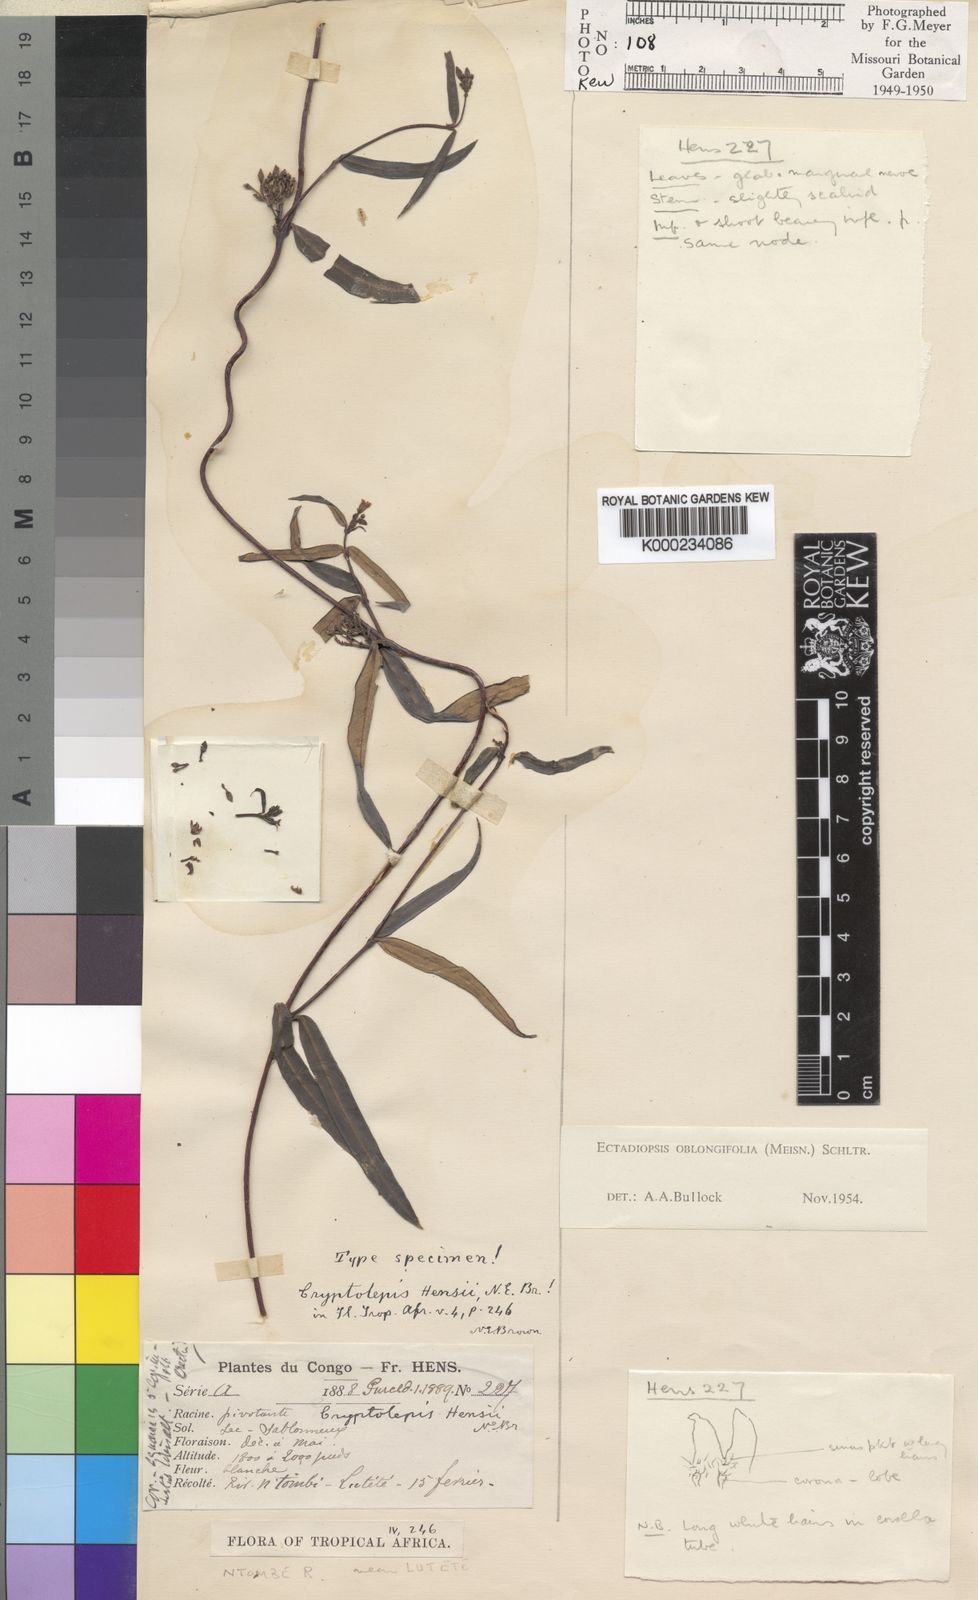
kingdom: Plantae
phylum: Tracheophyta
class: Magnoliopsida
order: Gentianales
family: Apocynaceae
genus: Cryptolepis
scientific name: Cryptolepis oblongifolia
